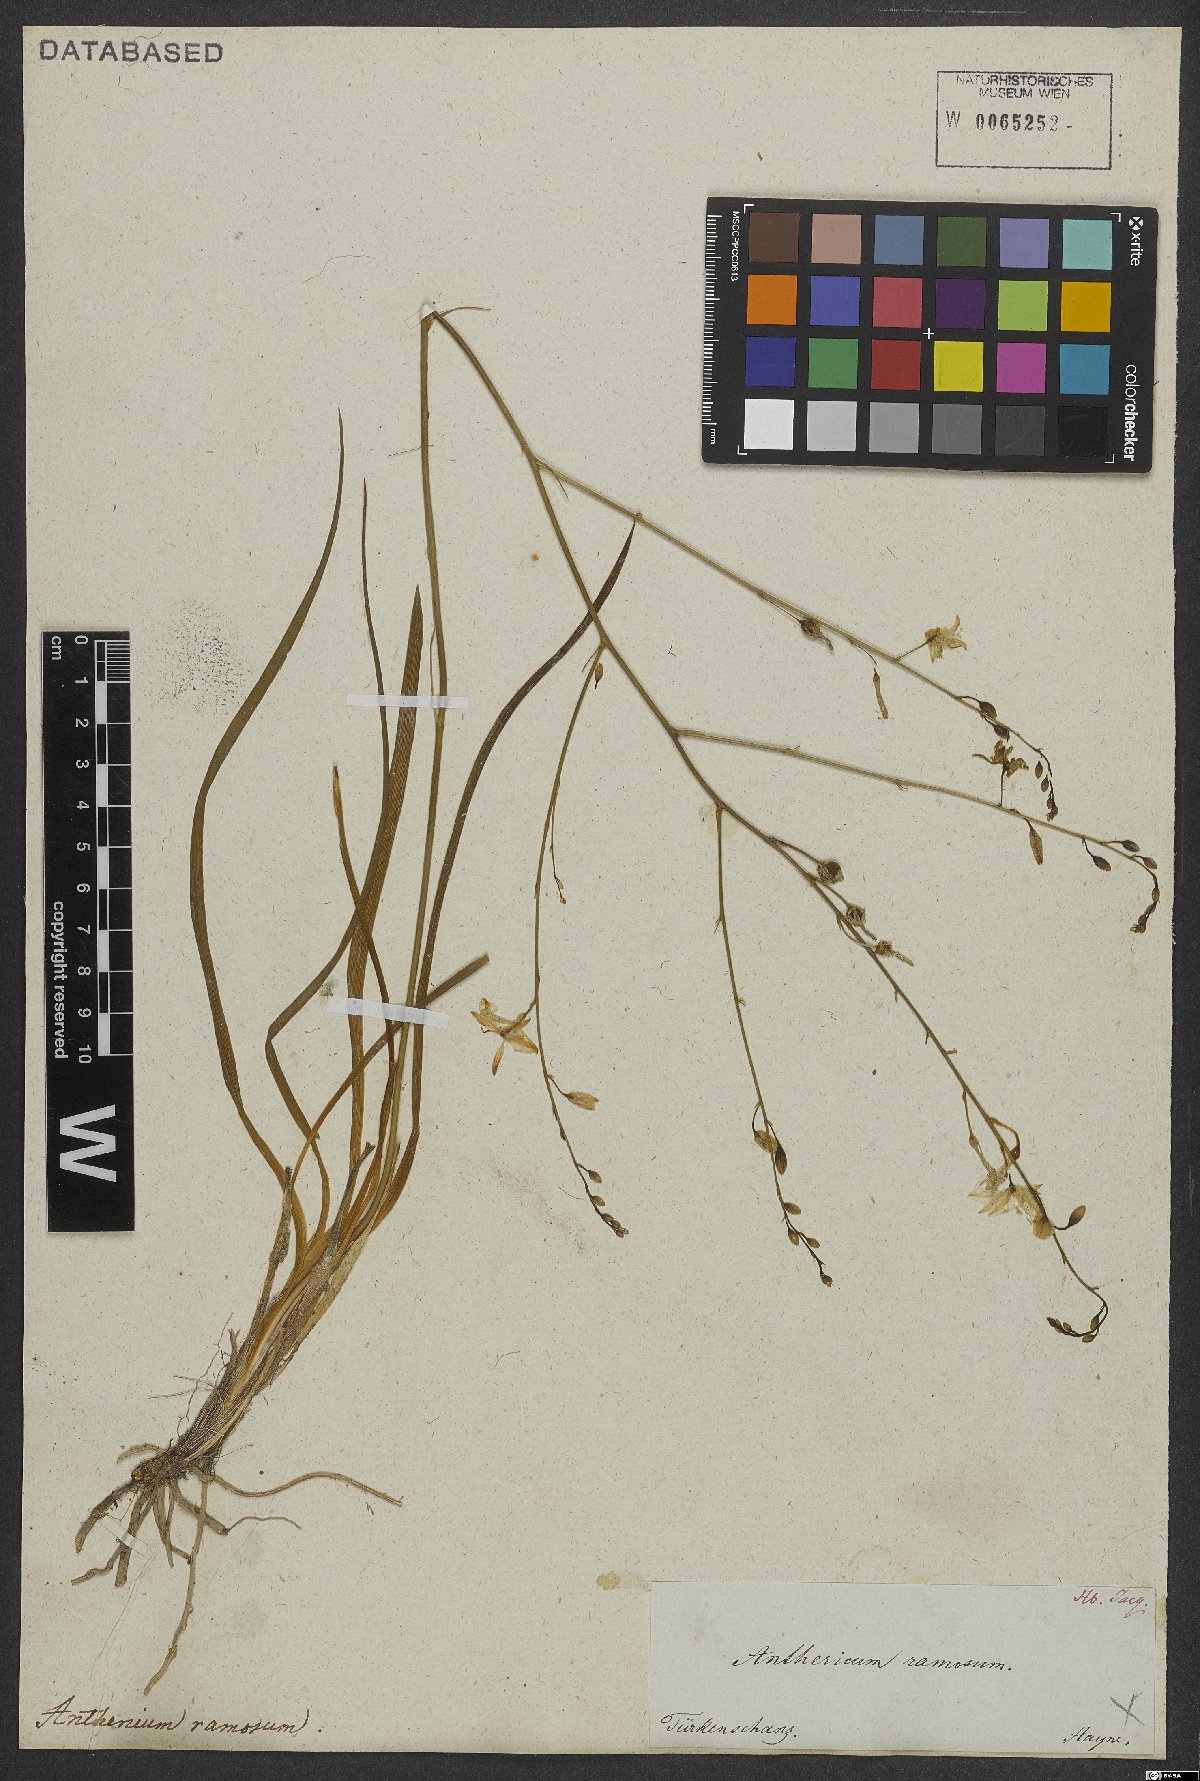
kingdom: Plantae
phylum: Tracheophyta
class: Liliopsida
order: Asparagales
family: Asparagaceae
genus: Anthericum
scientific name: Anthericum ramosum
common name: Branched st. bernard's-lily
